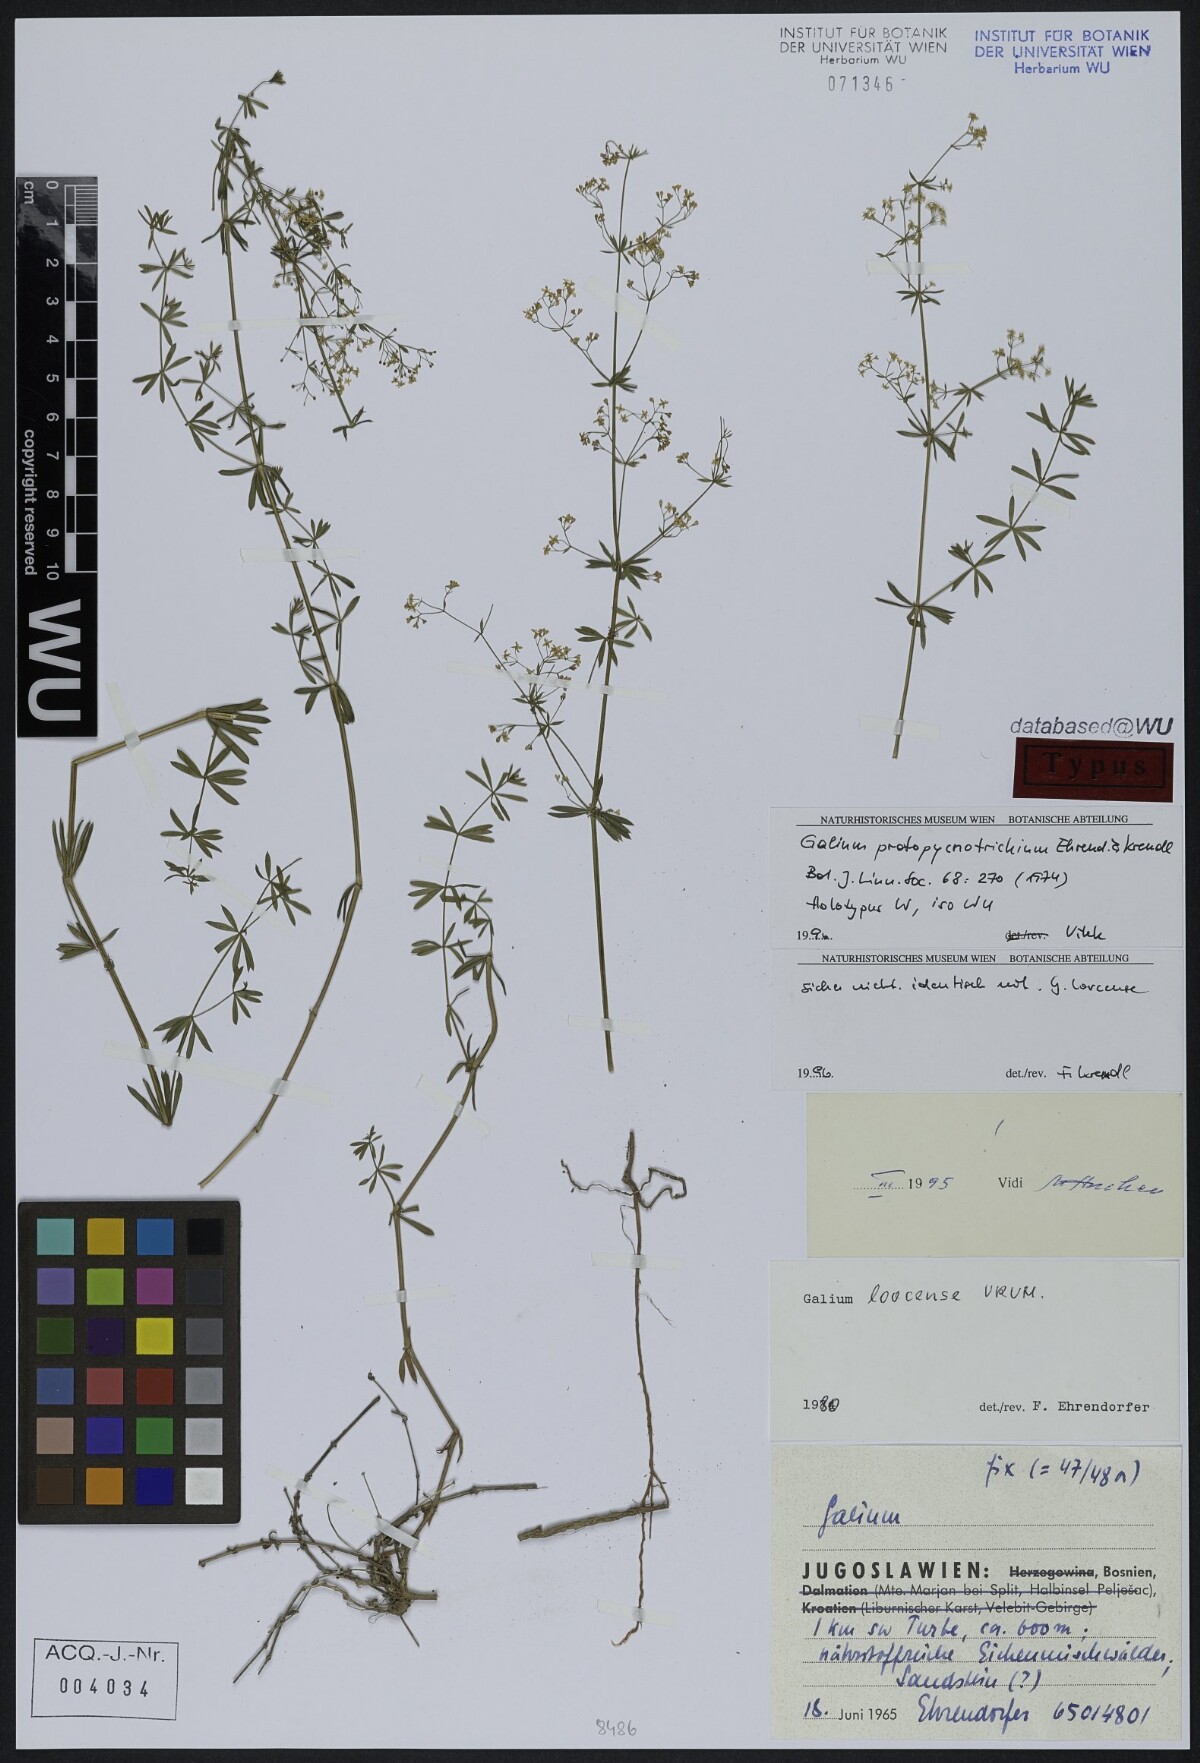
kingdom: Plantae
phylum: Tracheophyta
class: Magnoliopsida
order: Gentianales
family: Rubiaceae
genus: Galium
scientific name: Galium lovcense
